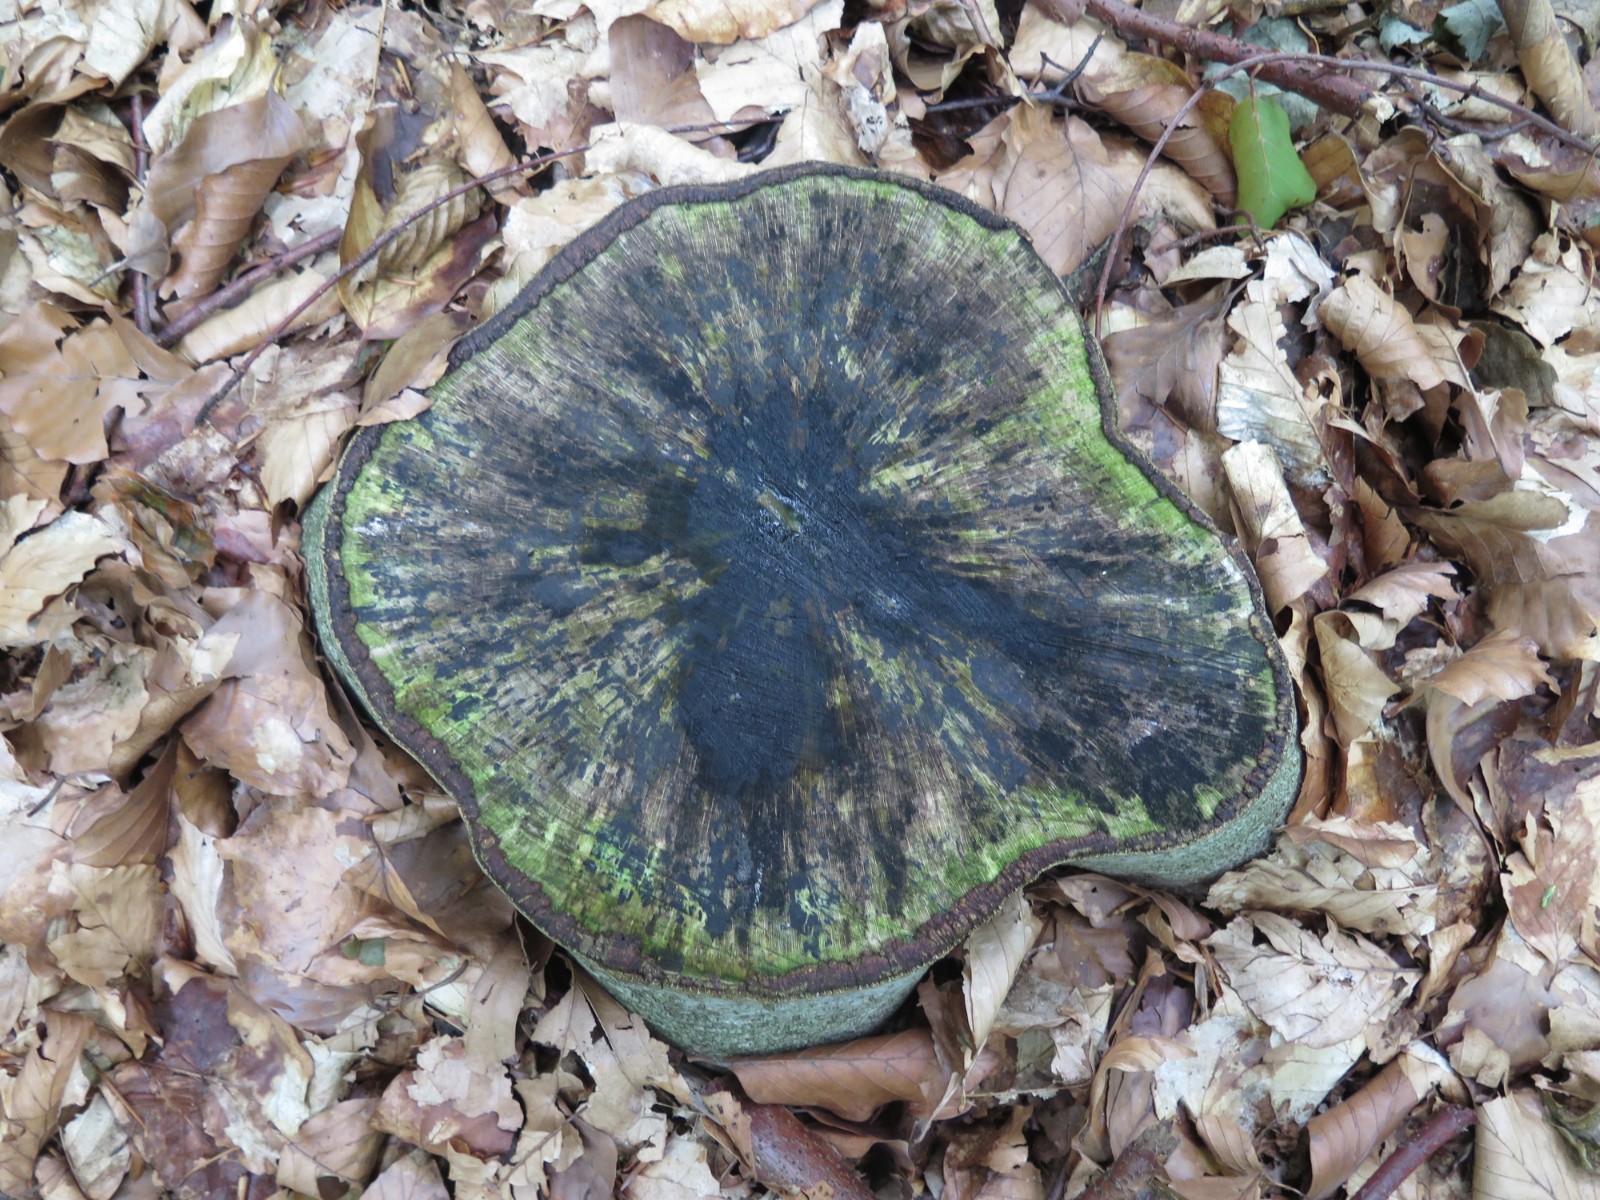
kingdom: Fungi
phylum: Ascomycota
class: Leotiomycetes
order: Helotiales
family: Helotiaceae
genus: Bispora
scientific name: Bispora pallescens
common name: måtte-snitskive
